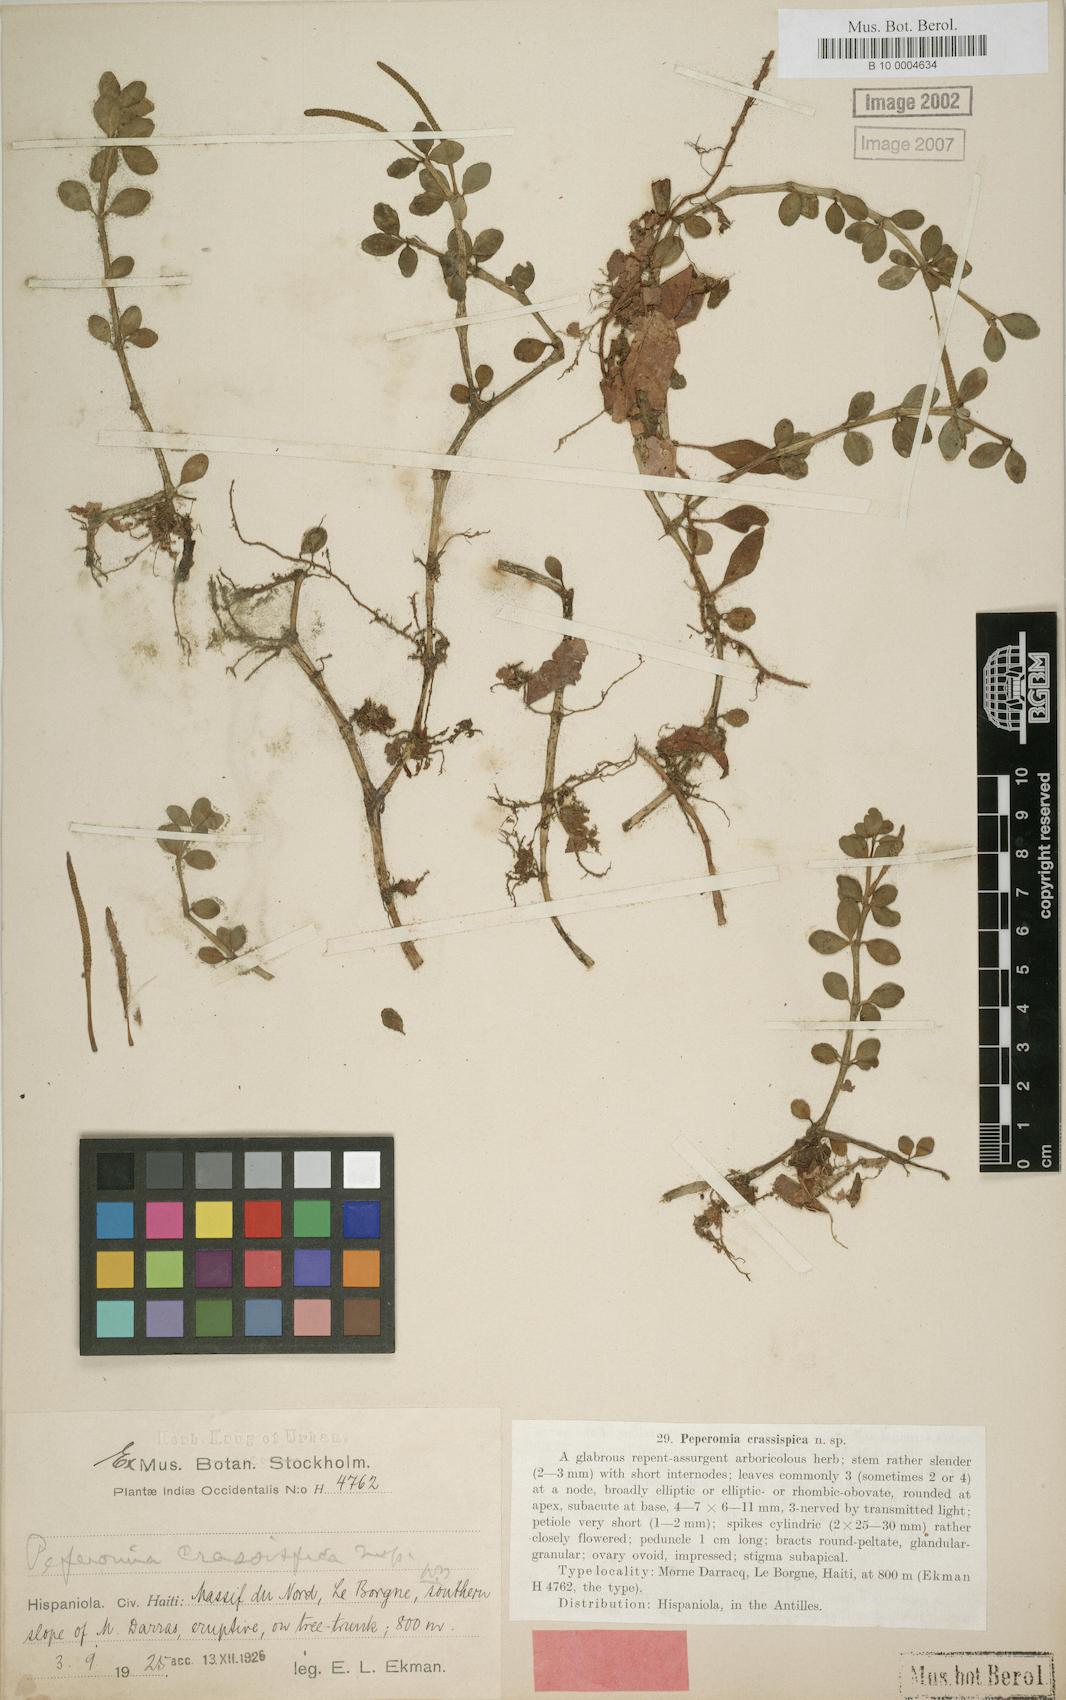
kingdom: Plantae
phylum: Tracheophyta
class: Magnoliopsida
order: Piperales
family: Piperaceae
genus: Peperomia
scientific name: Peperomia quadrifolia
